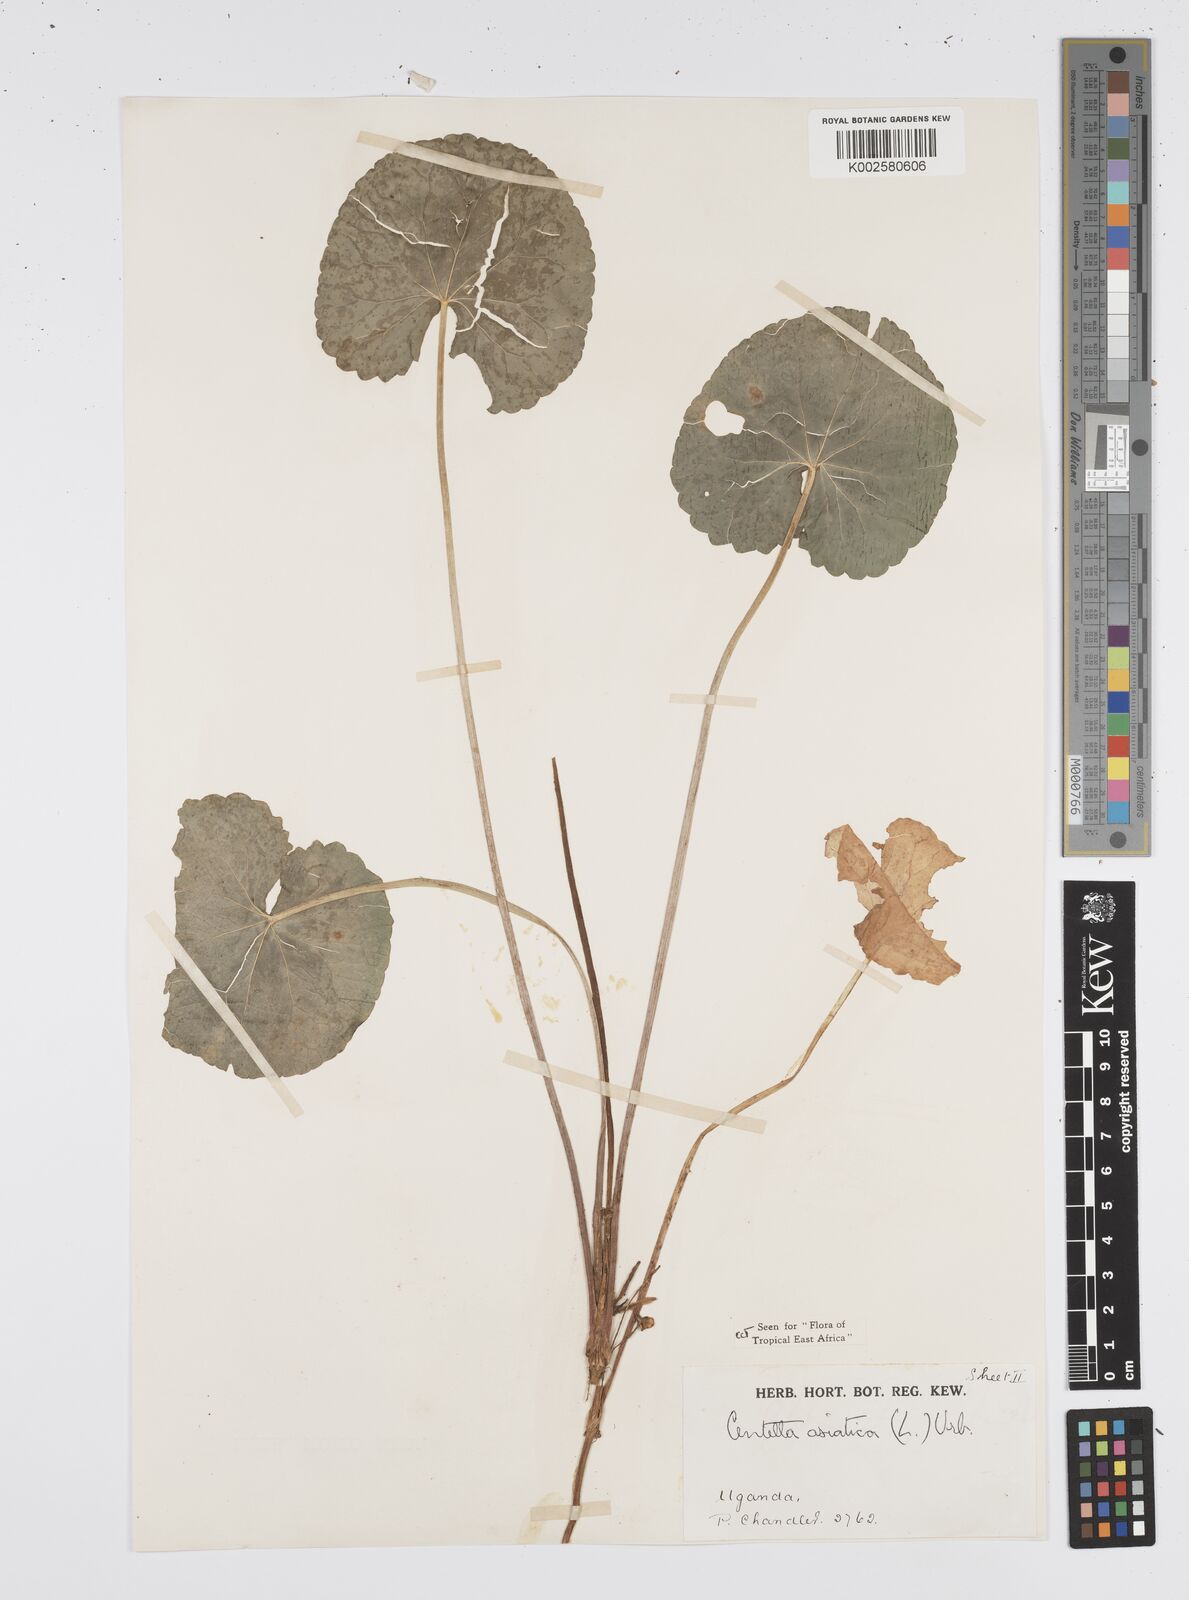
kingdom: Plantae
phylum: Tracheophyta
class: Magnoliopsida
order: Apiales
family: Apiaceae
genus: Centella
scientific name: Centella asiatica
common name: Spadeleaf
